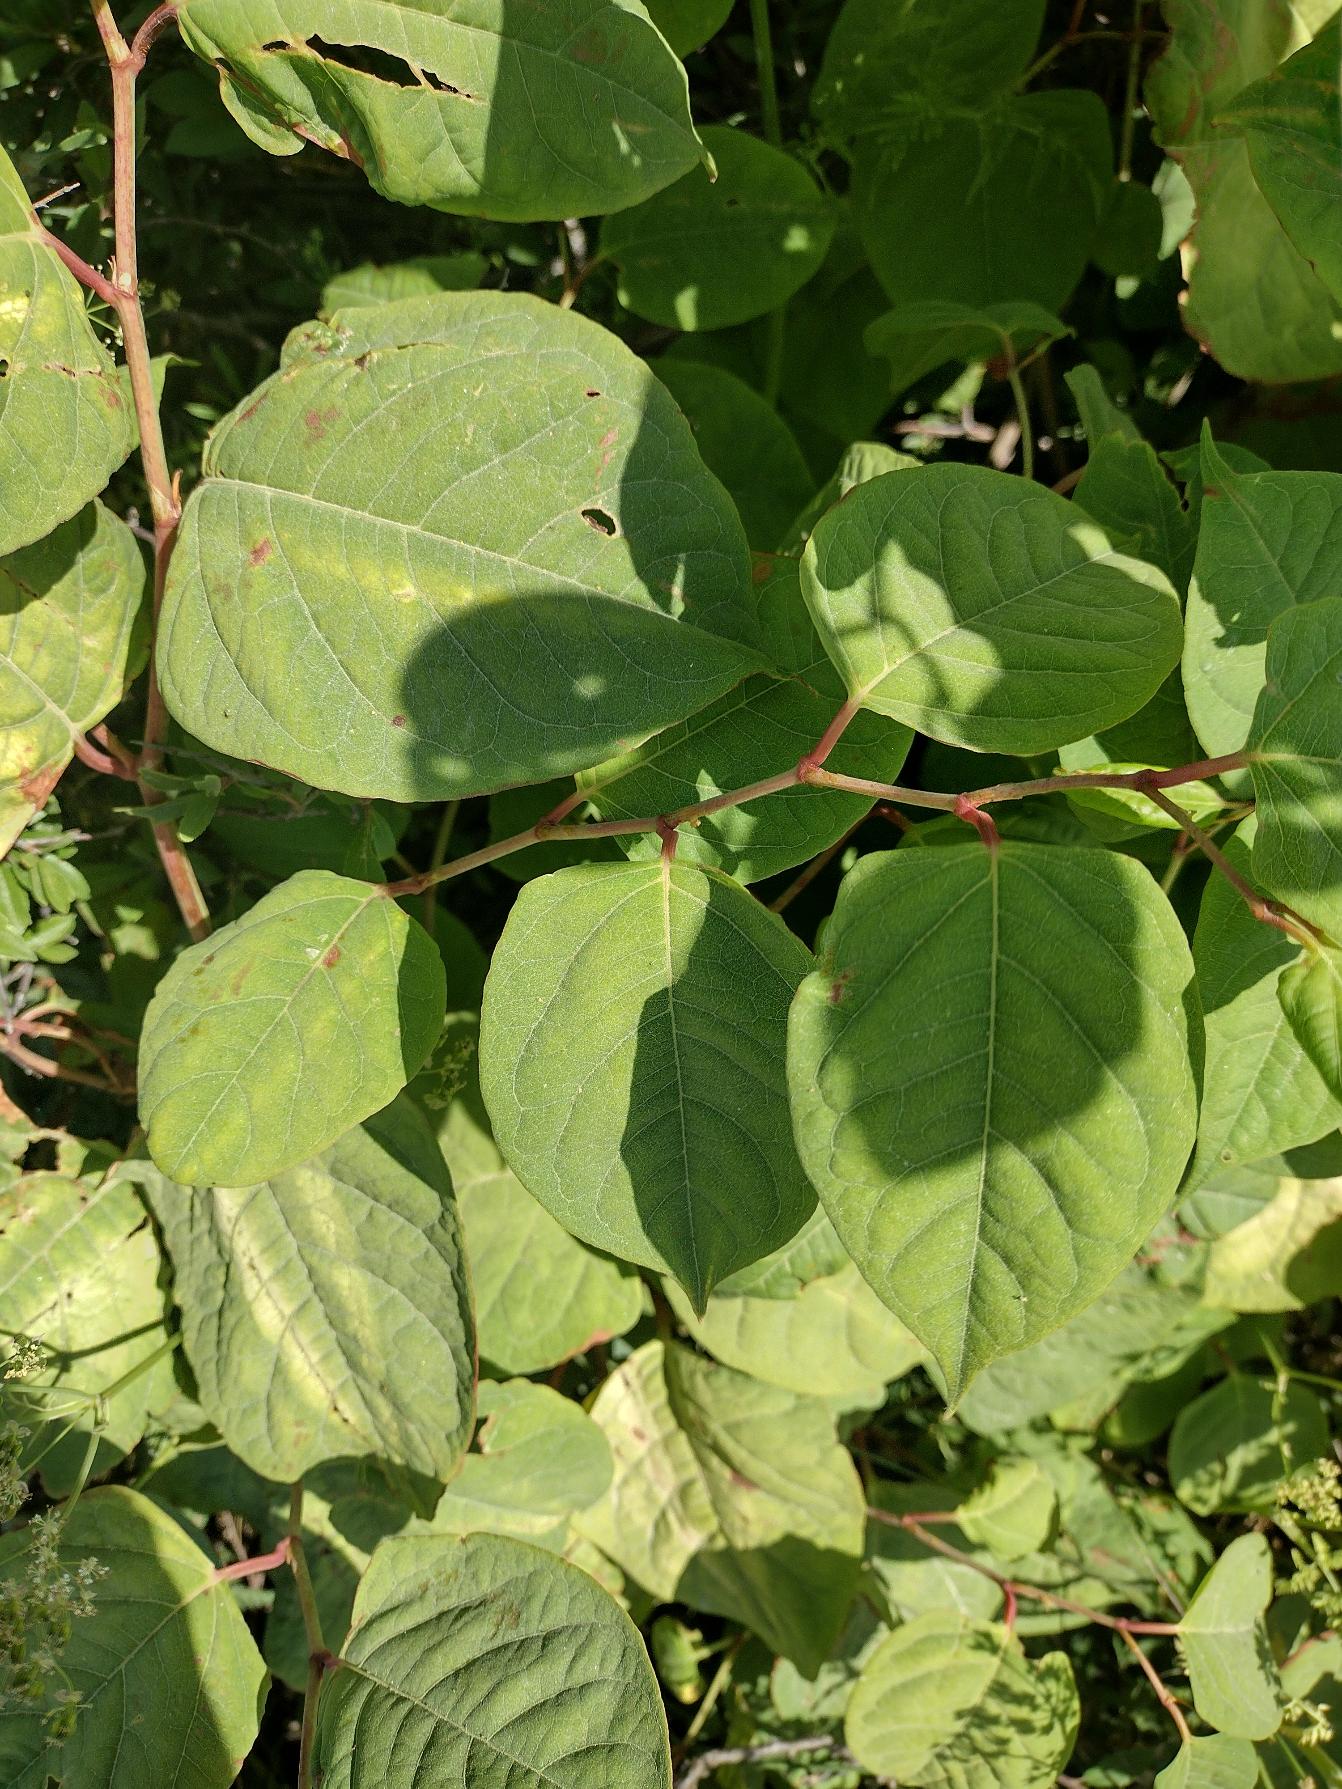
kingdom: Plantae
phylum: Tracheophyta
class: Magnoliopsida
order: Caryophyllales
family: Polygonaceae
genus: Reynoutria
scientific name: Reynoutria japonica
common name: Japan-pileurt
